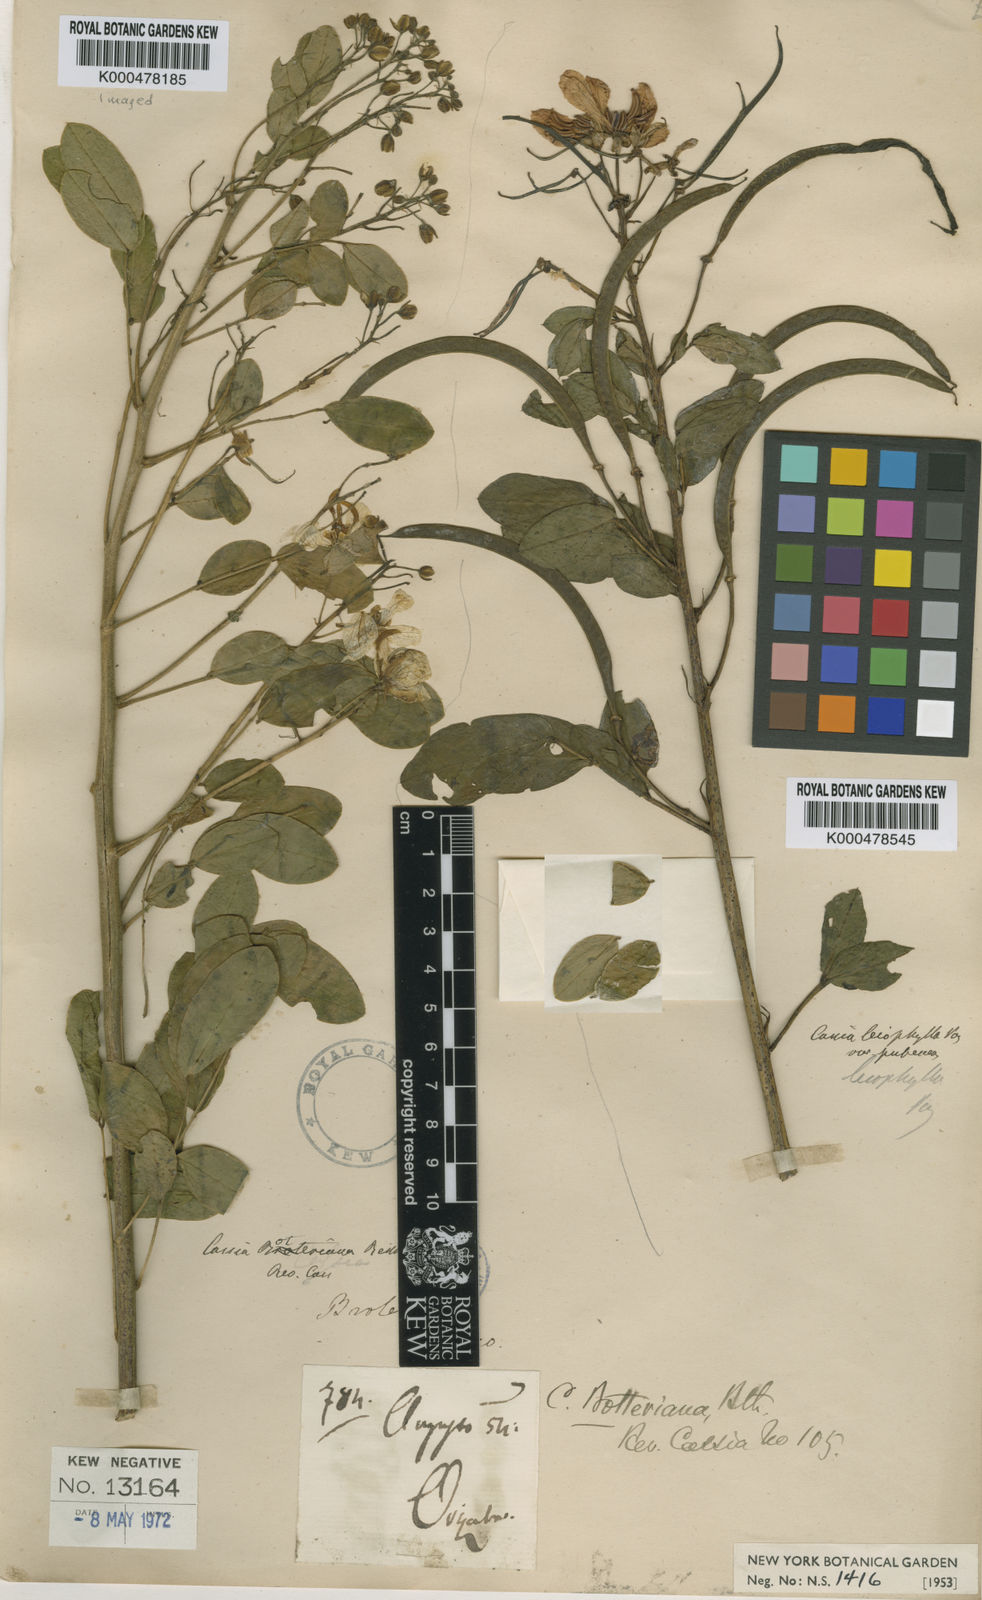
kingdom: Plantae
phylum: Tracheophyta
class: Magnoliopsida
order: Fabales
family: Fabaceae
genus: Senna
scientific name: Senna pendula
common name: Easter cassia
